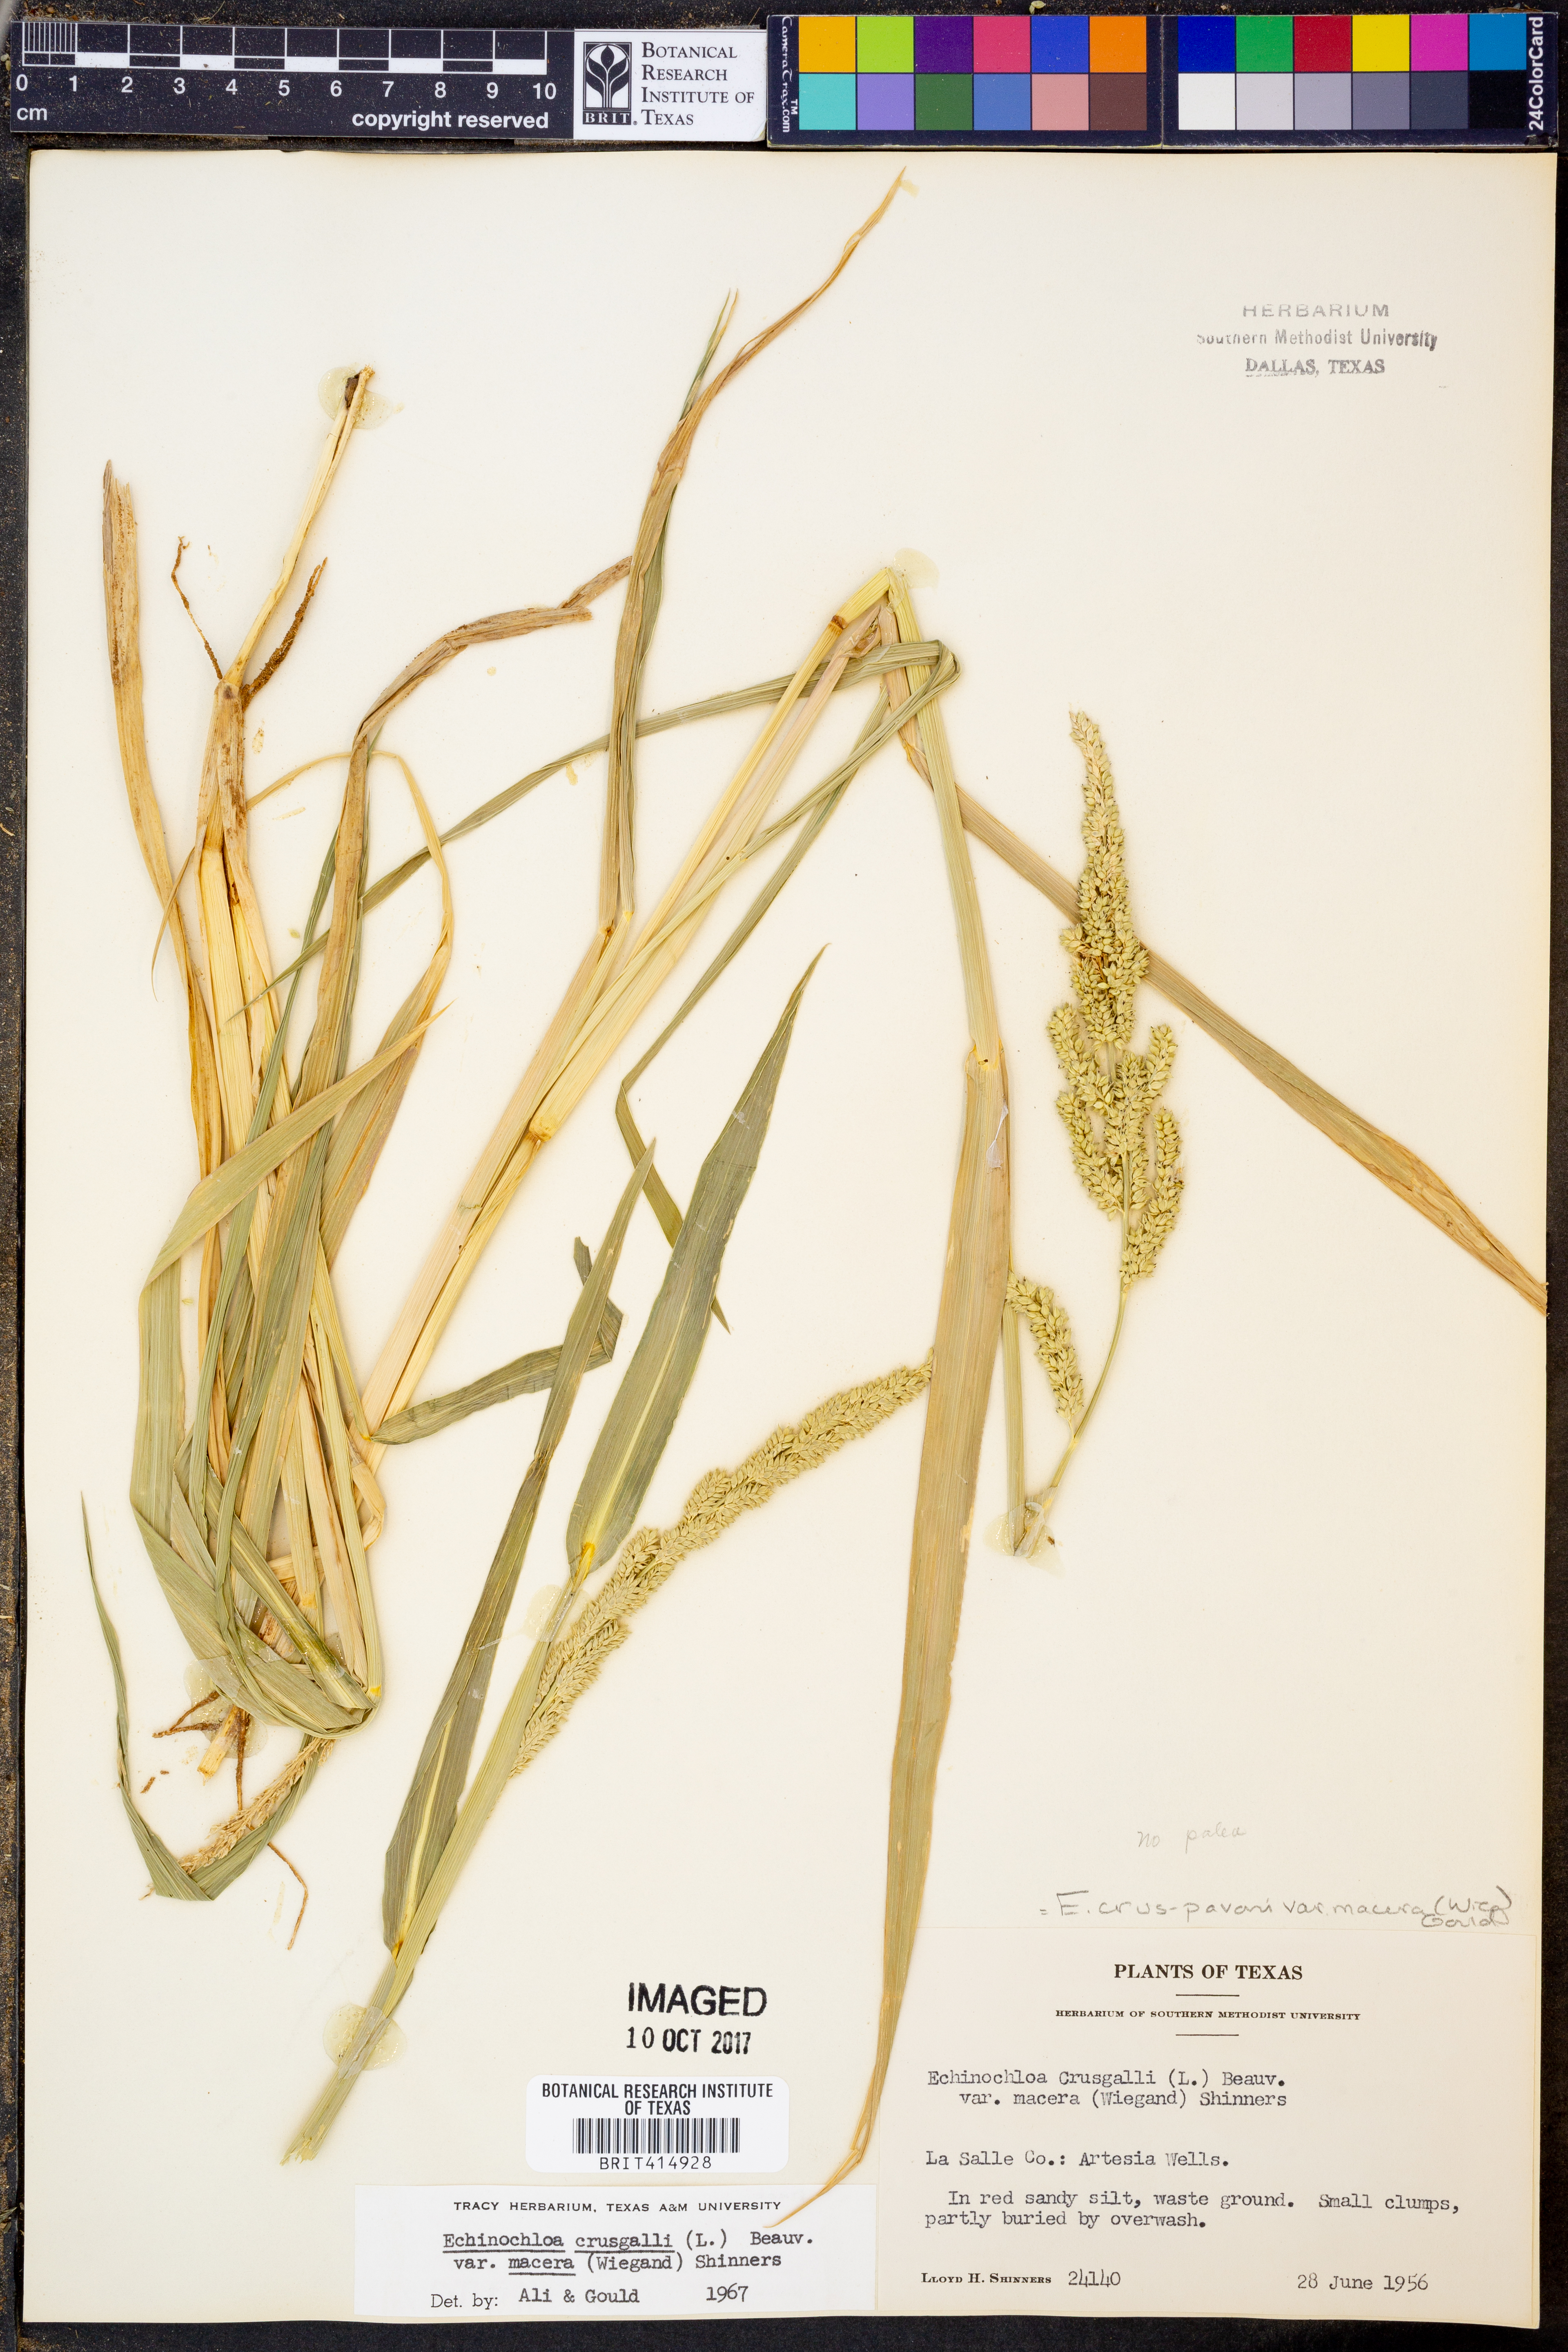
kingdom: Plantae
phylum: Tracheophyta
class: Liliopsida
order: Poales
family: Poaceae
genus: Echinochloa
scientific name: Echinochloa crus-pavonis
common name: Gulf cockspur grass
